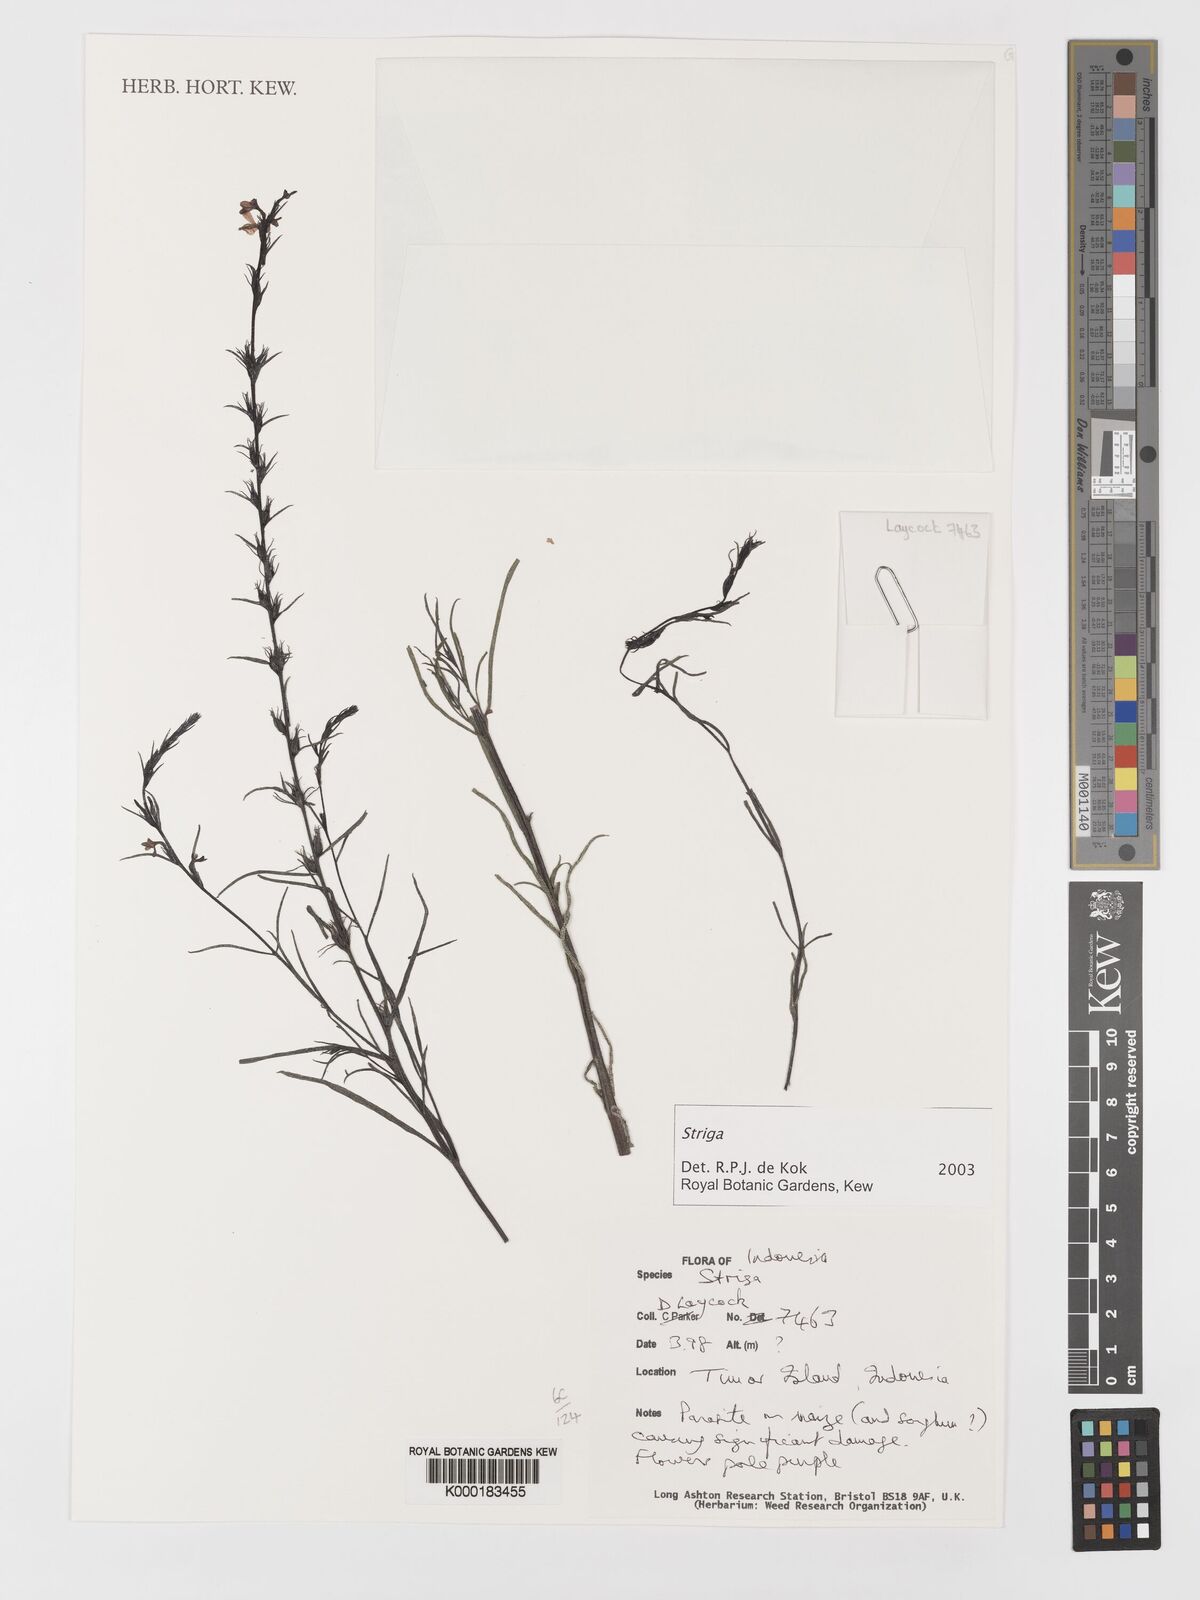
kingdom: Plantae
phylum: Tracheophyta
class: Magnoliopsida
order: Lamiales
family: Orobanchaceae
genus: Striga
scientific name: Striga
